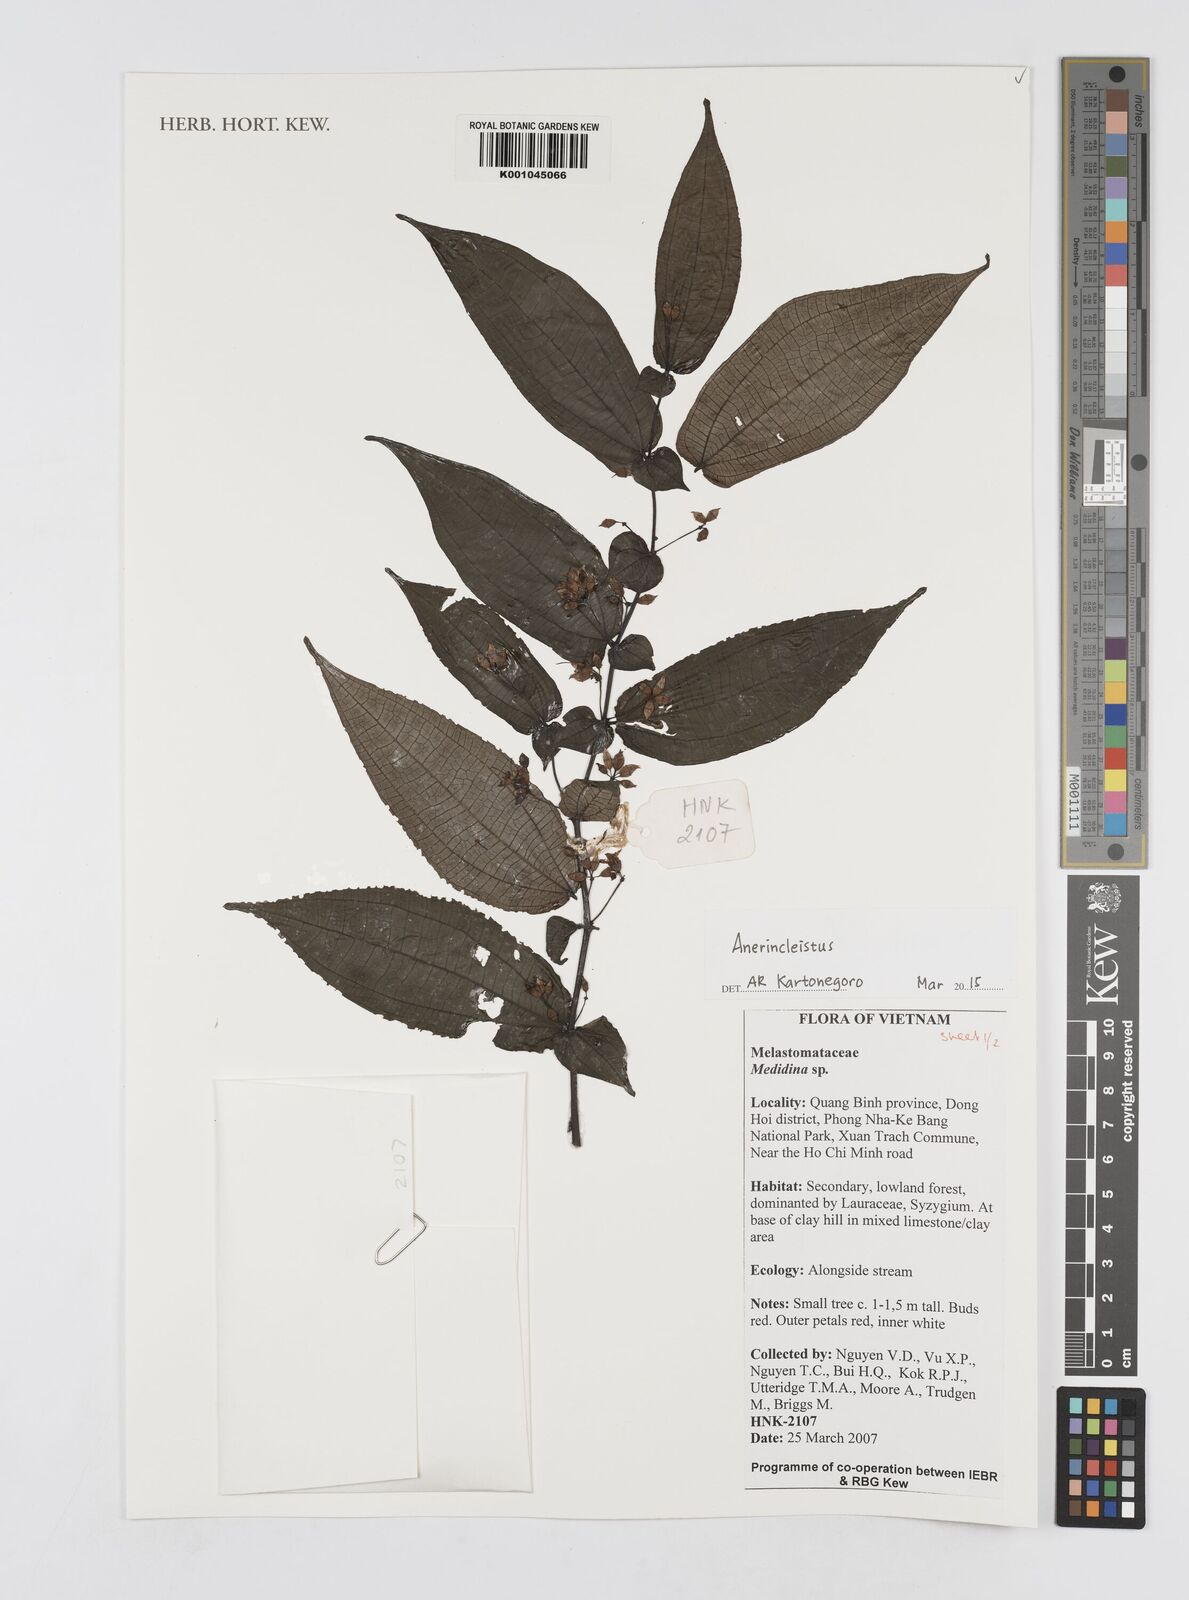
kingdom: Plantae
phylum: Tracheophyta
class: Magnoliopsida
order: Myrtales
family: Melastomataceae
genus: Anerincleistus
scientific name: Anerincleistus
